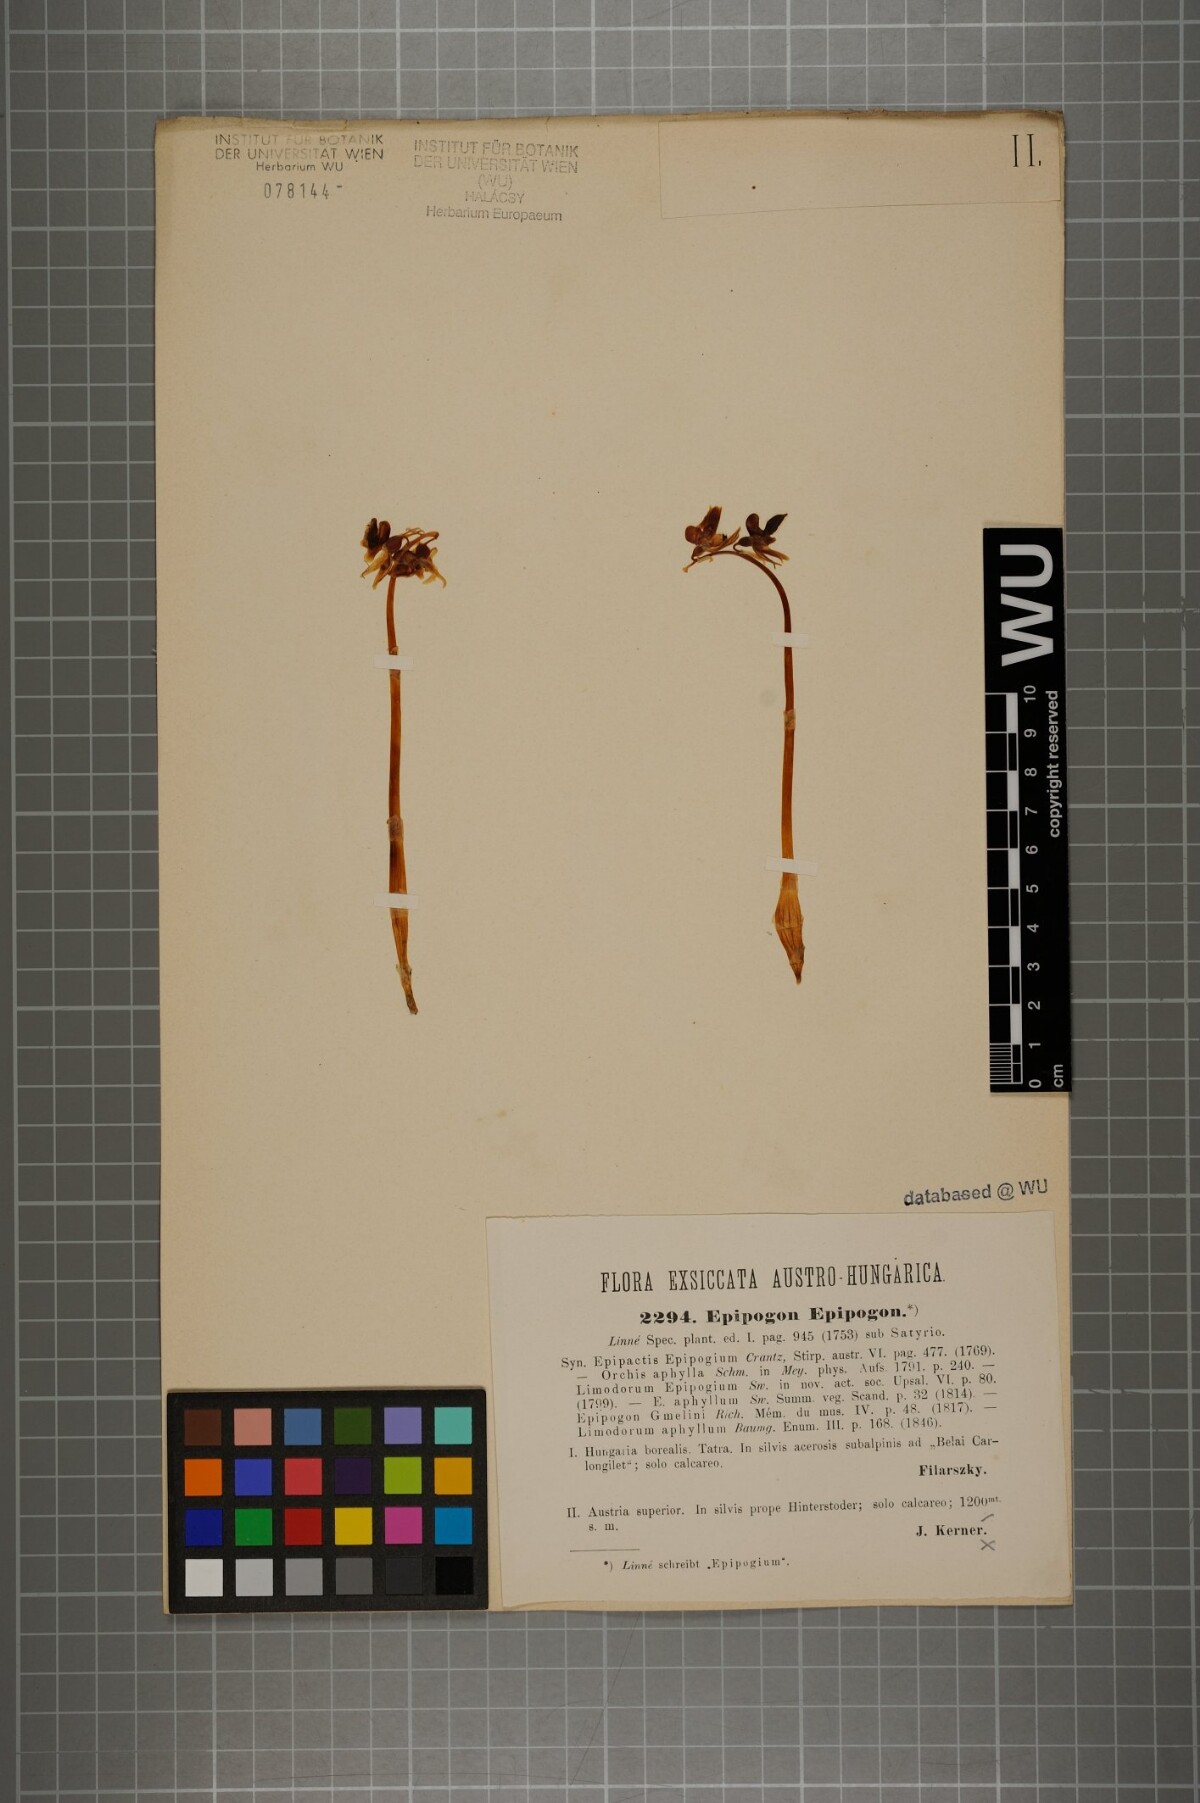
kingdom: Plantae
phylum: Tracheophyta
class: Liliopsida
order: Asparagales
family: Orchidaceae
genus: Epipogium
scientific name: Epipogium aphyllum
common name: Ghost orchid
